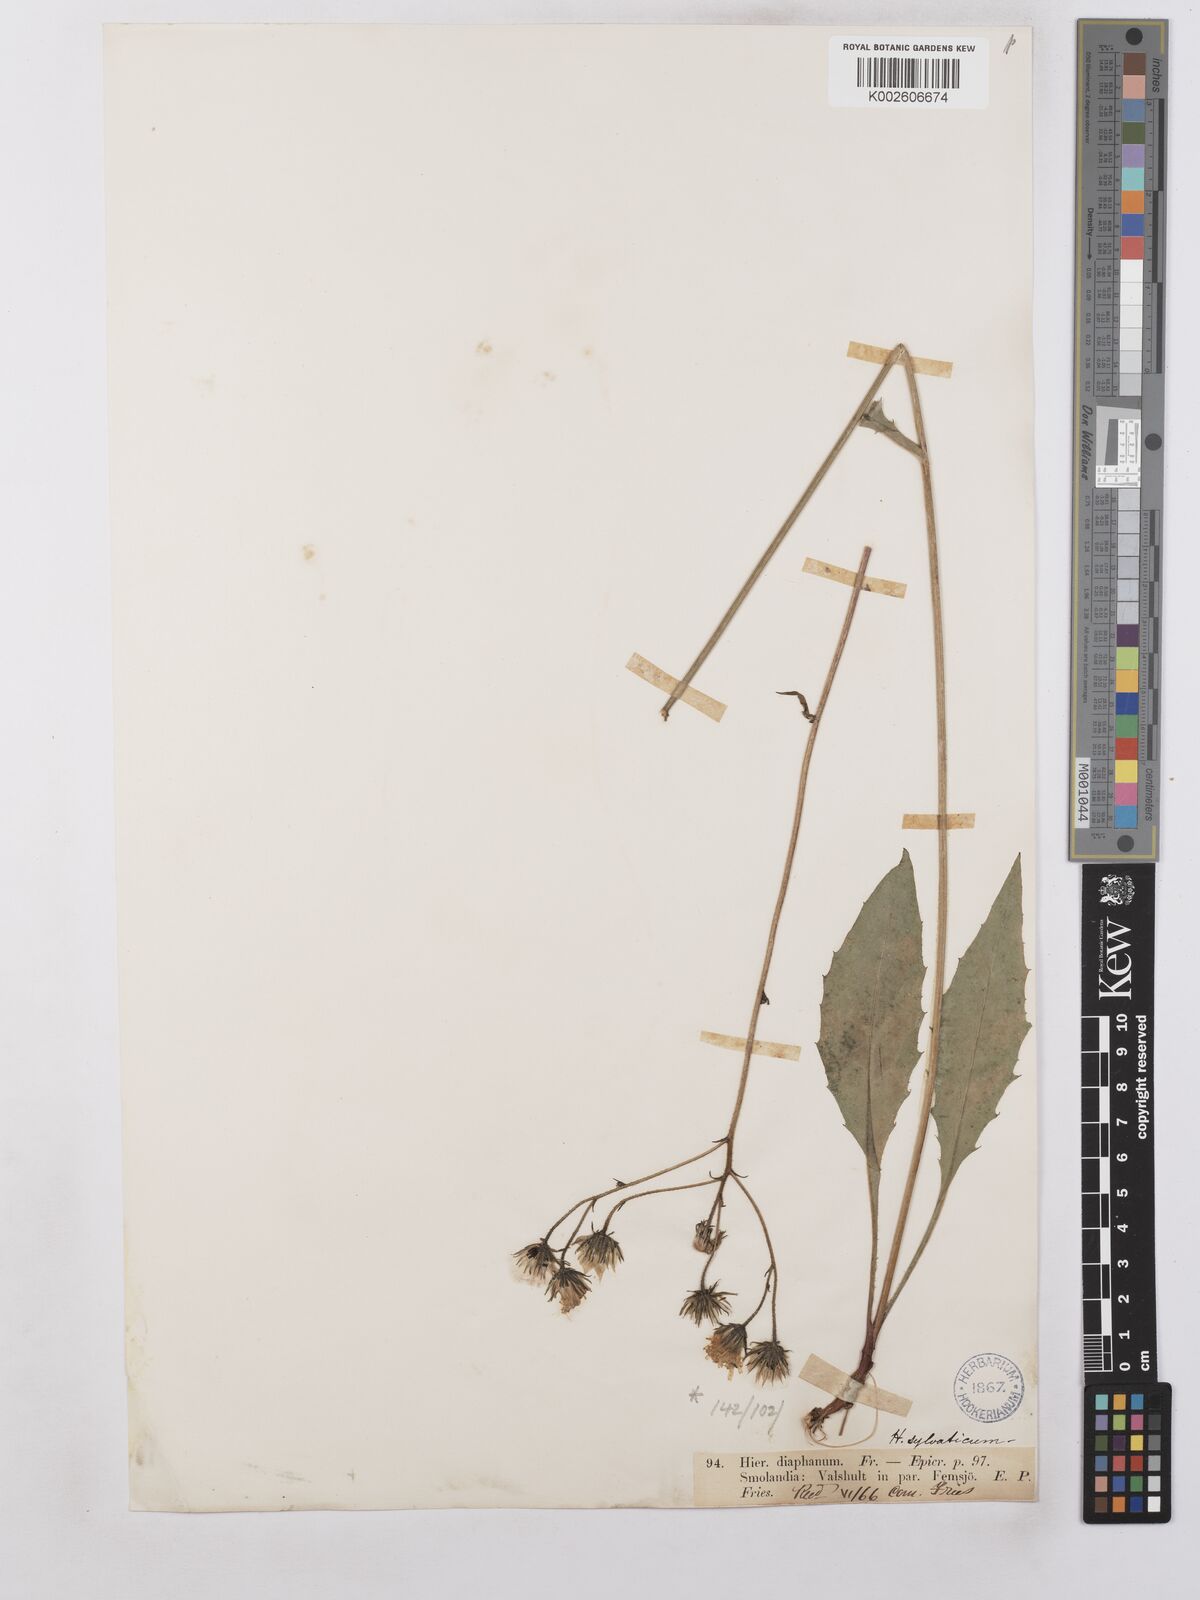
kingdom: Plantae
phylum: Tracheophyta
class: Magnoliopsida
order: Asterales
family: Asteraceae
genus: Hieracium
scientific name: Hieracium lachenalii
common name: Common hawkweed
